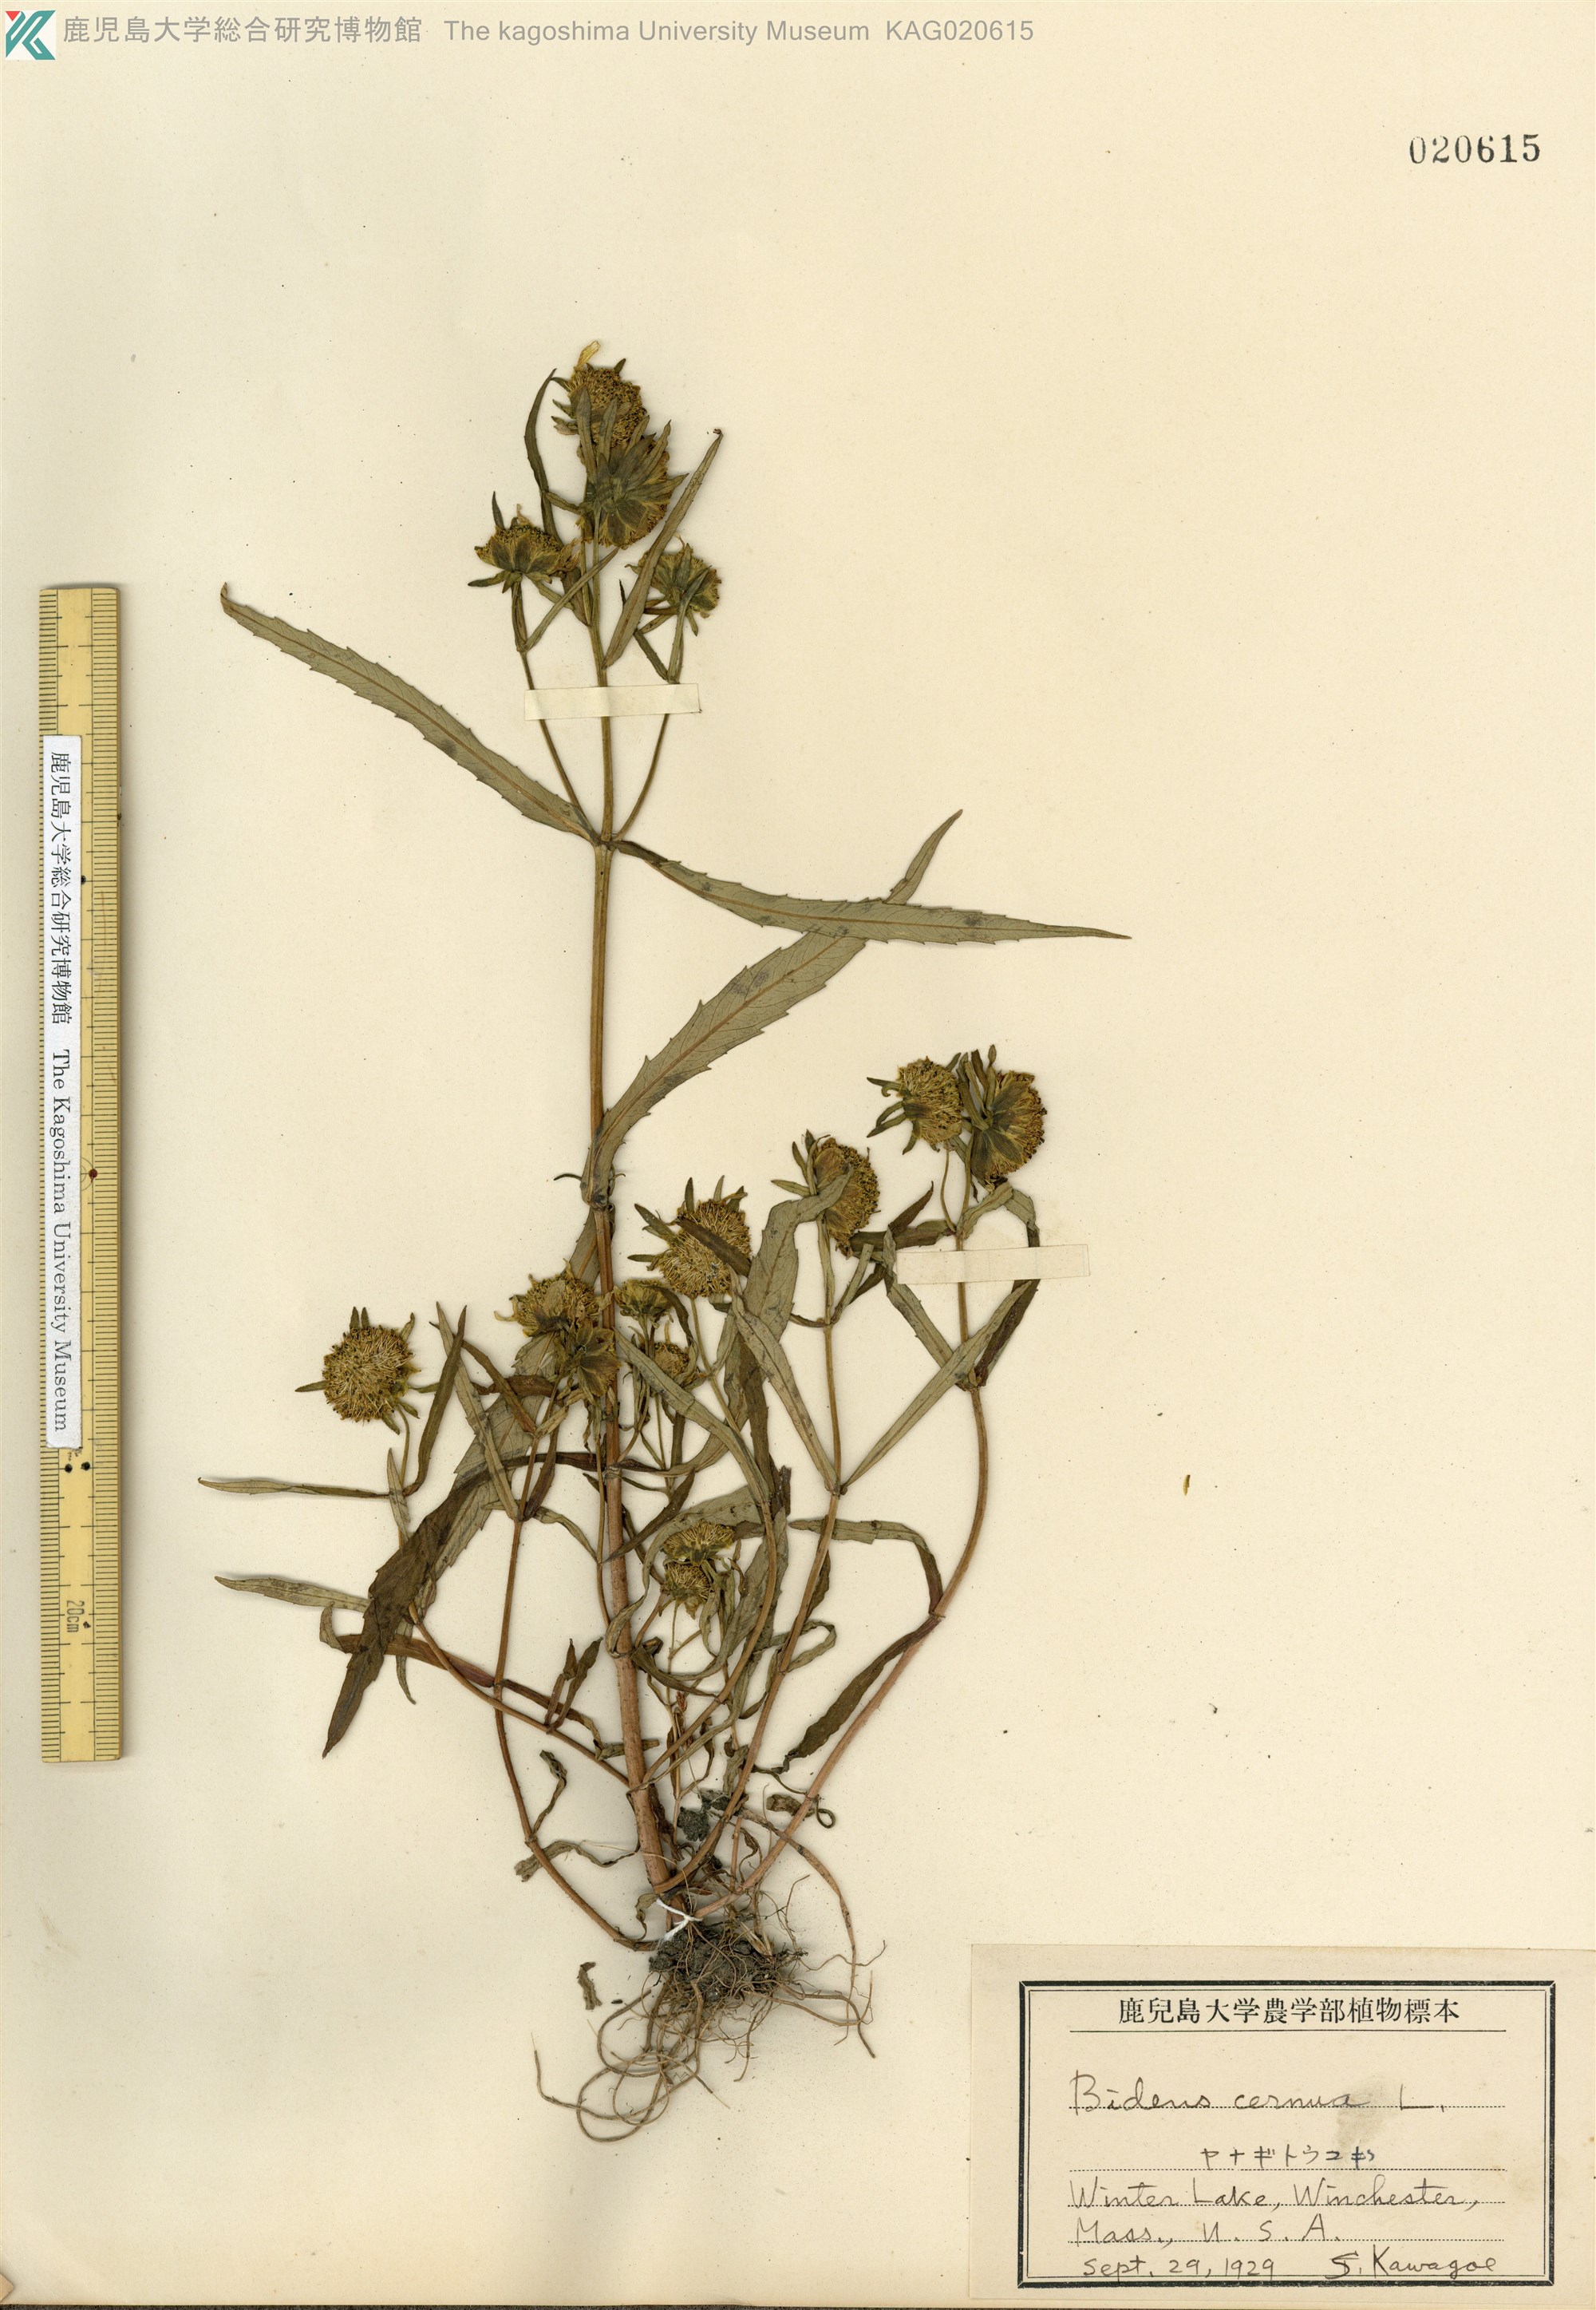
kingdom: Plantae
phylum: Tracheophyta
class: Magnoliopsida
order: Asterales
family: Asteraceae
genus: Bidens
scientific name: Bidens cernua
